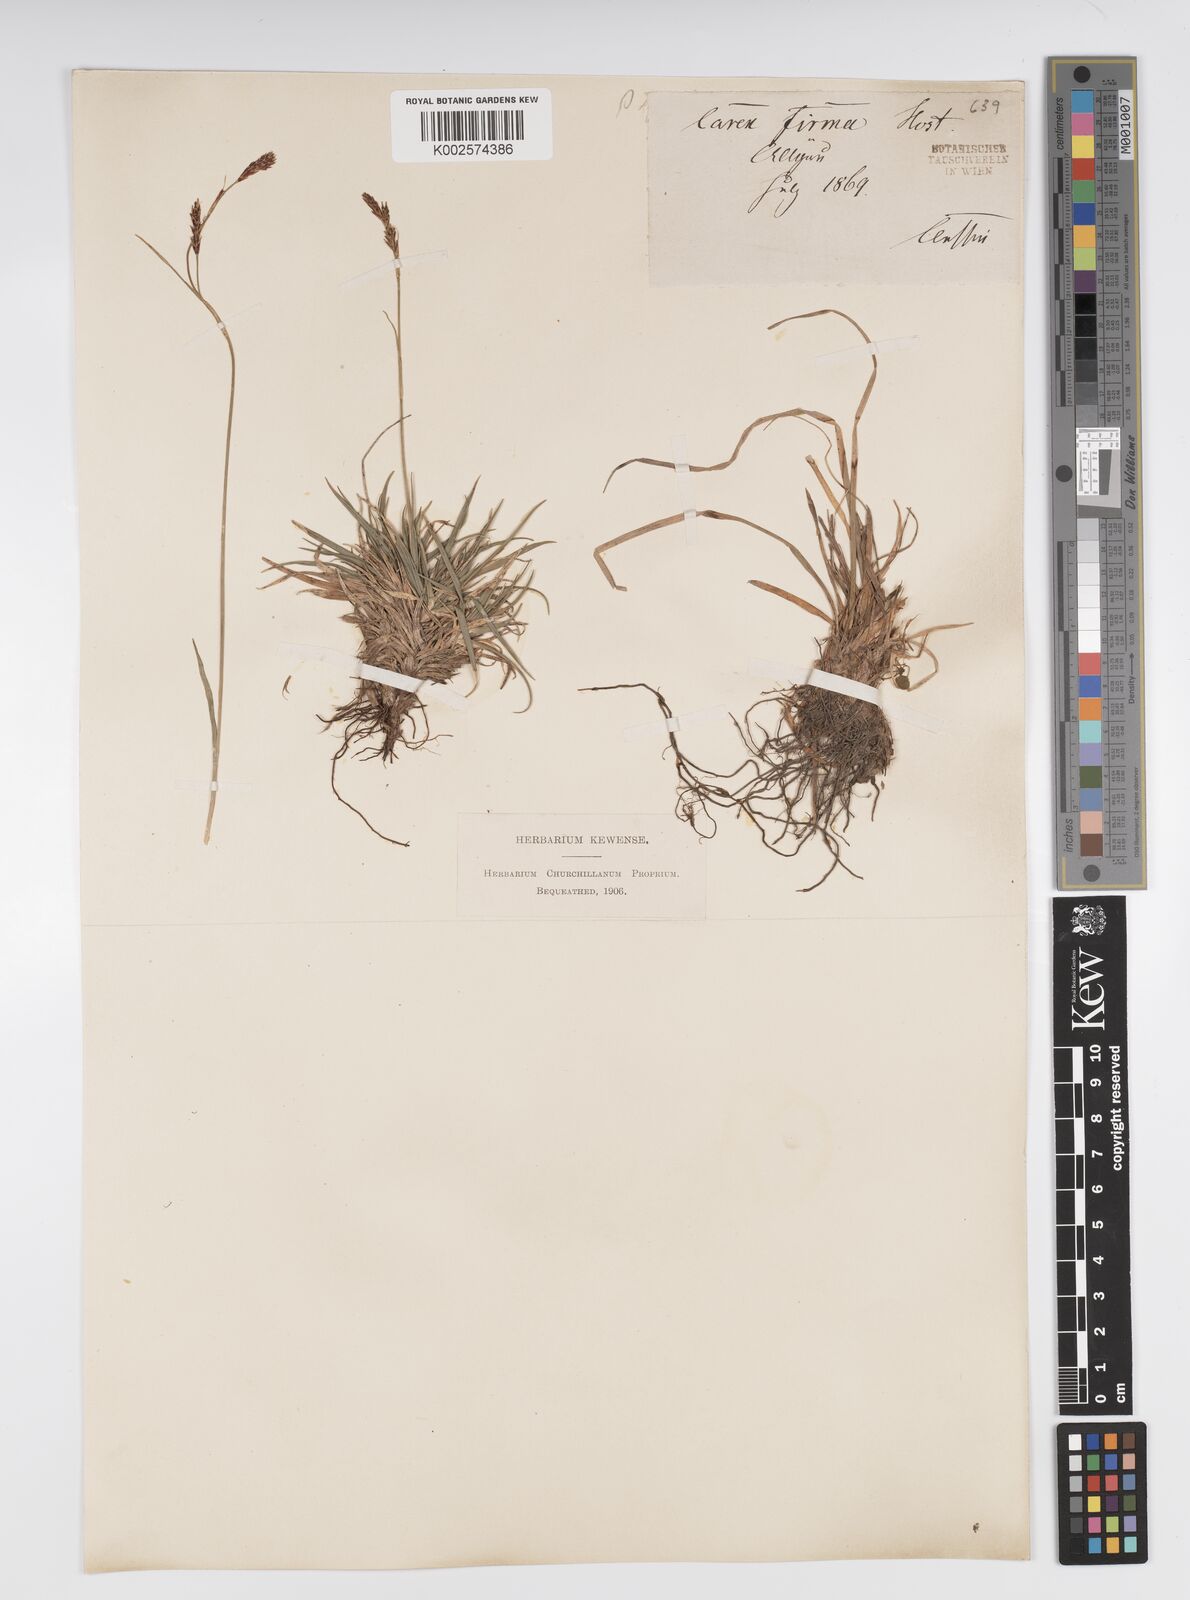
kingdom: Plantae
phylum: Tracheophyta
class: Liliopsida
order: Poales
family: Cyperaceae
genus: Carex
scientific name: Carex firma
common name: Dwarf pillow sedge
